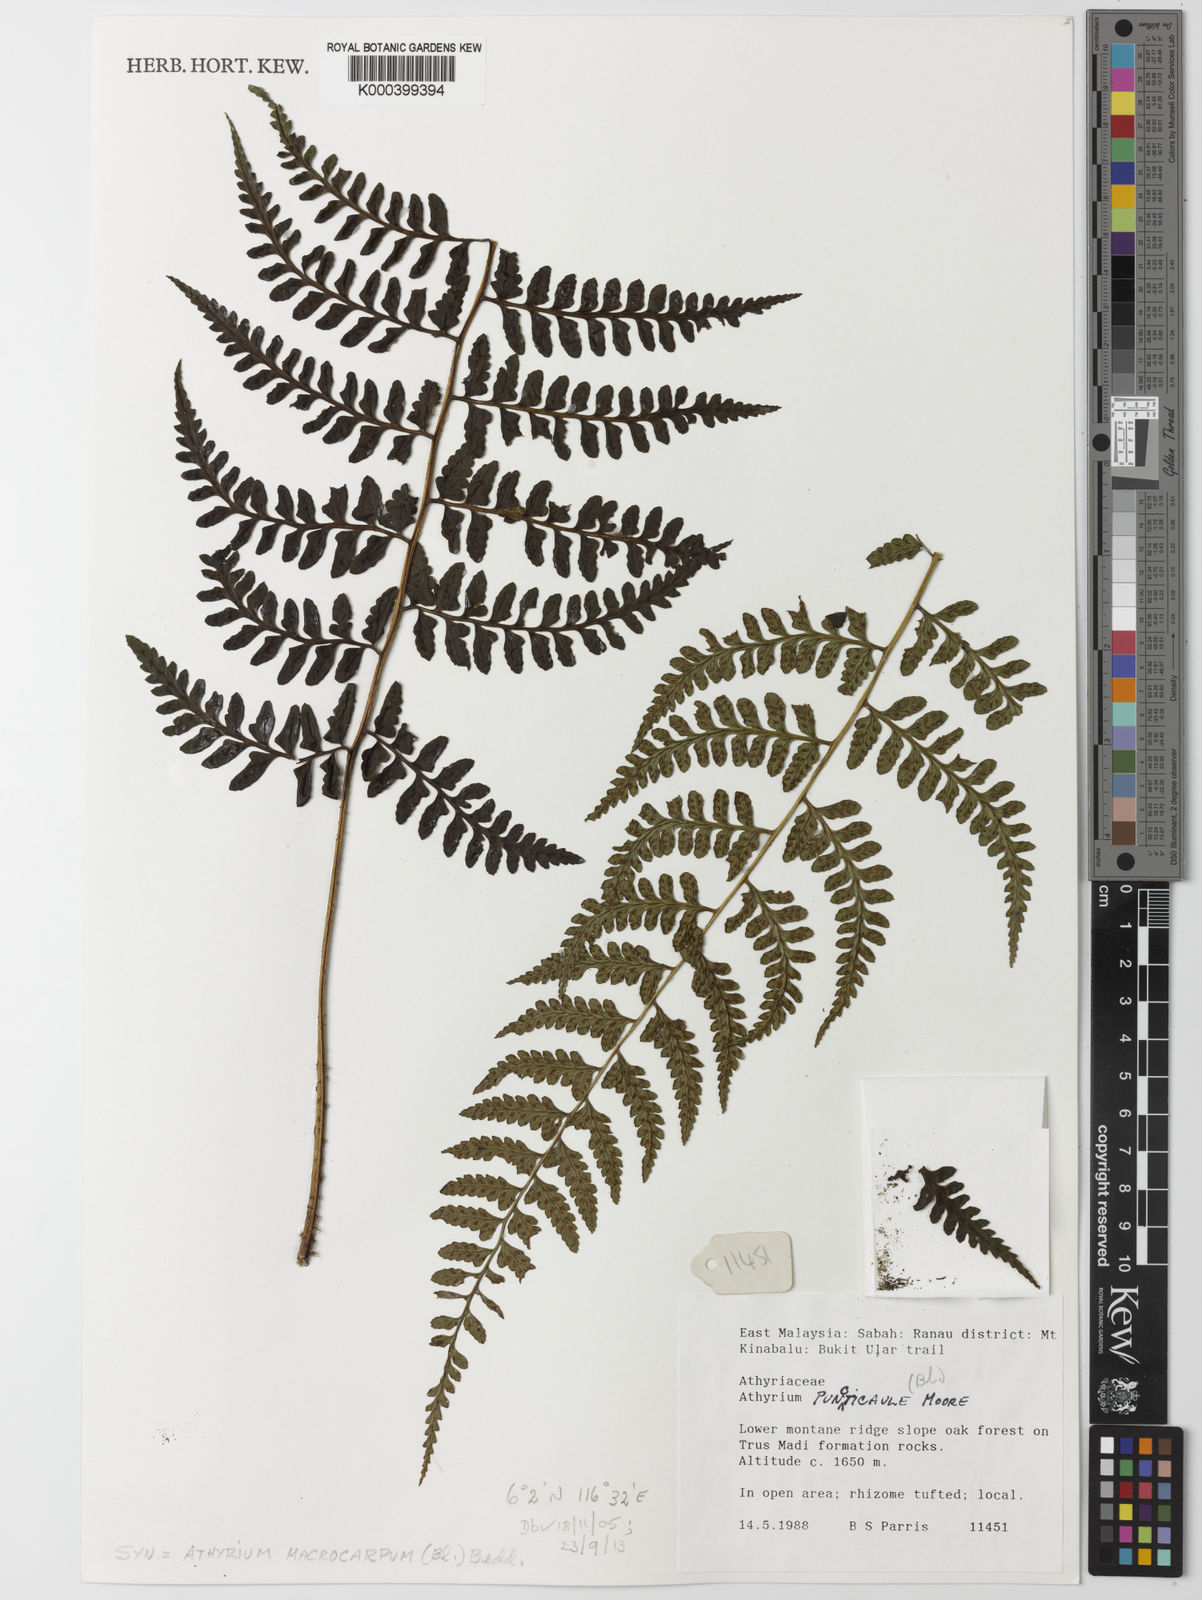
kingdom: Plantae
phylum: Tracheophyta
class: Polypodiopsida
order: Polypodiales
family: Athyriaceae
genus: Athyrium
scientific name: Athyrium
